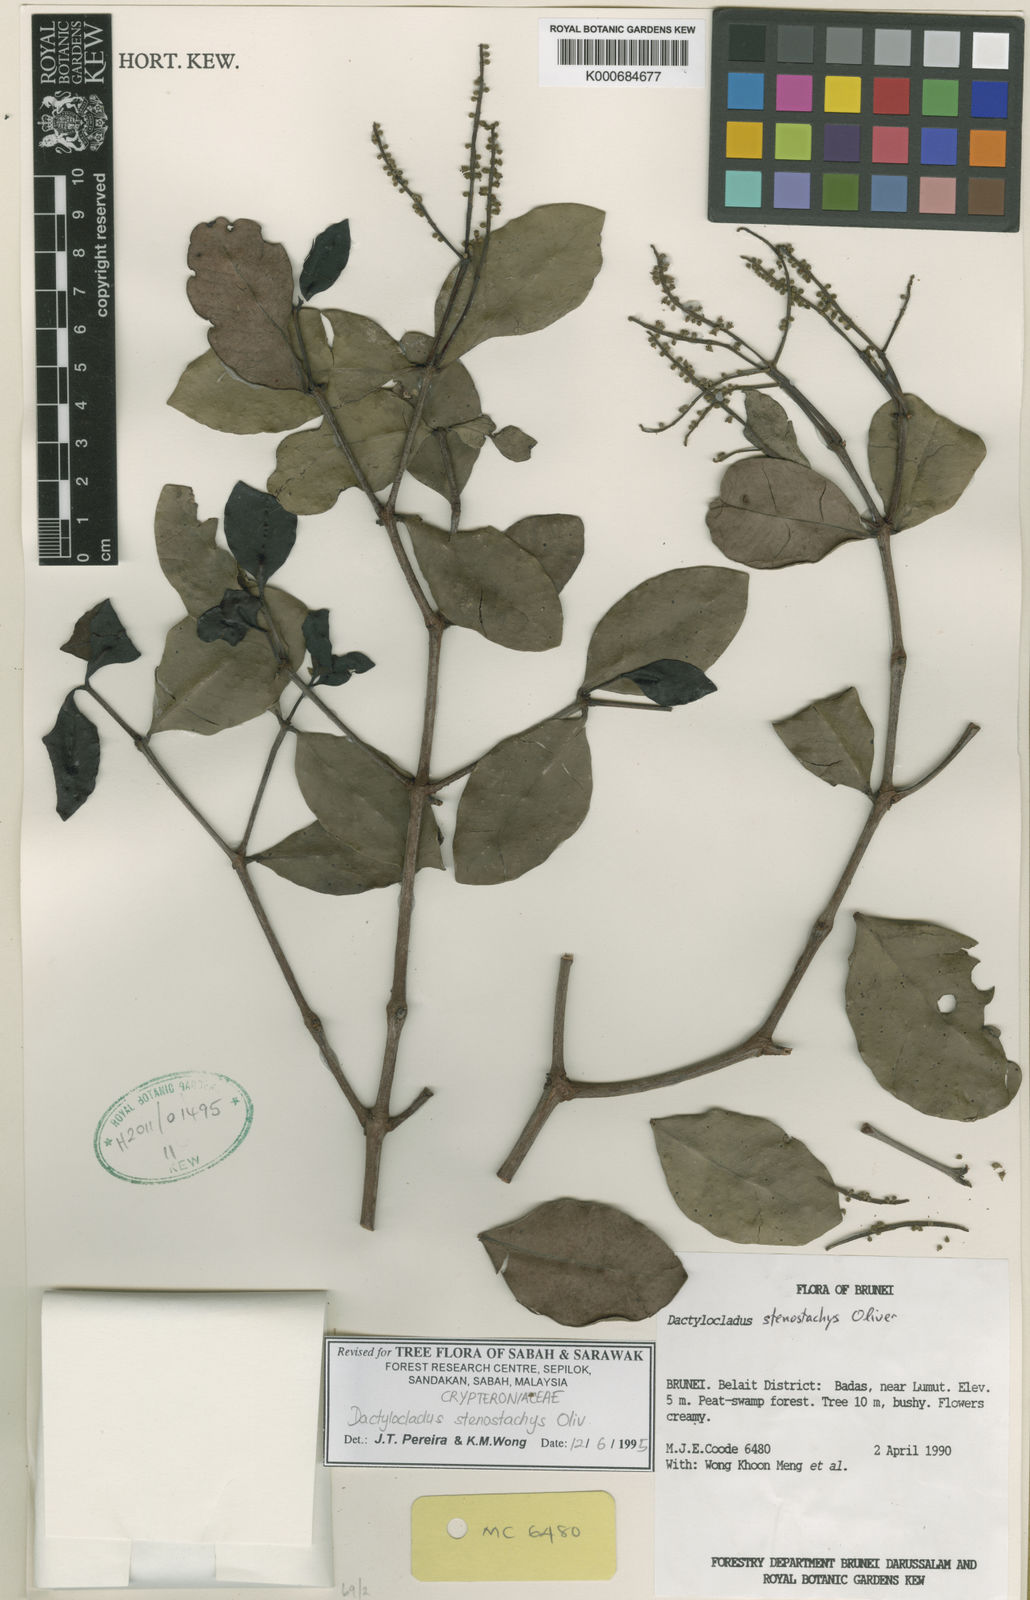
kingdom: Plantae
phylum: Tracheophyta
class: Magnoliopsida
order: Myrtales
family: Crypteroniaceae
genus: Dactylocladus
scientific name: Dactylocladus stenostachys
